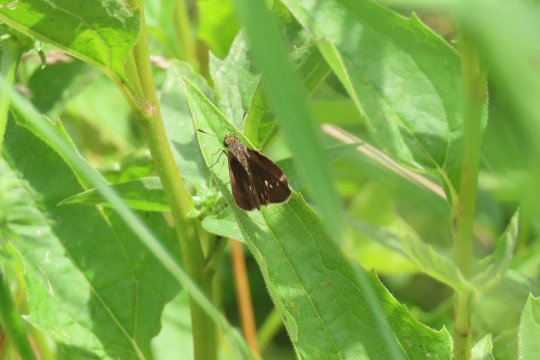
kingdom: Animalia
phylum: Arthropoda
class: Insecta
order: Lepidoptera
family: Hesperiidae
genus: Euphyes
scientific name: Euphyes vestris
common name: Dun Skipper
